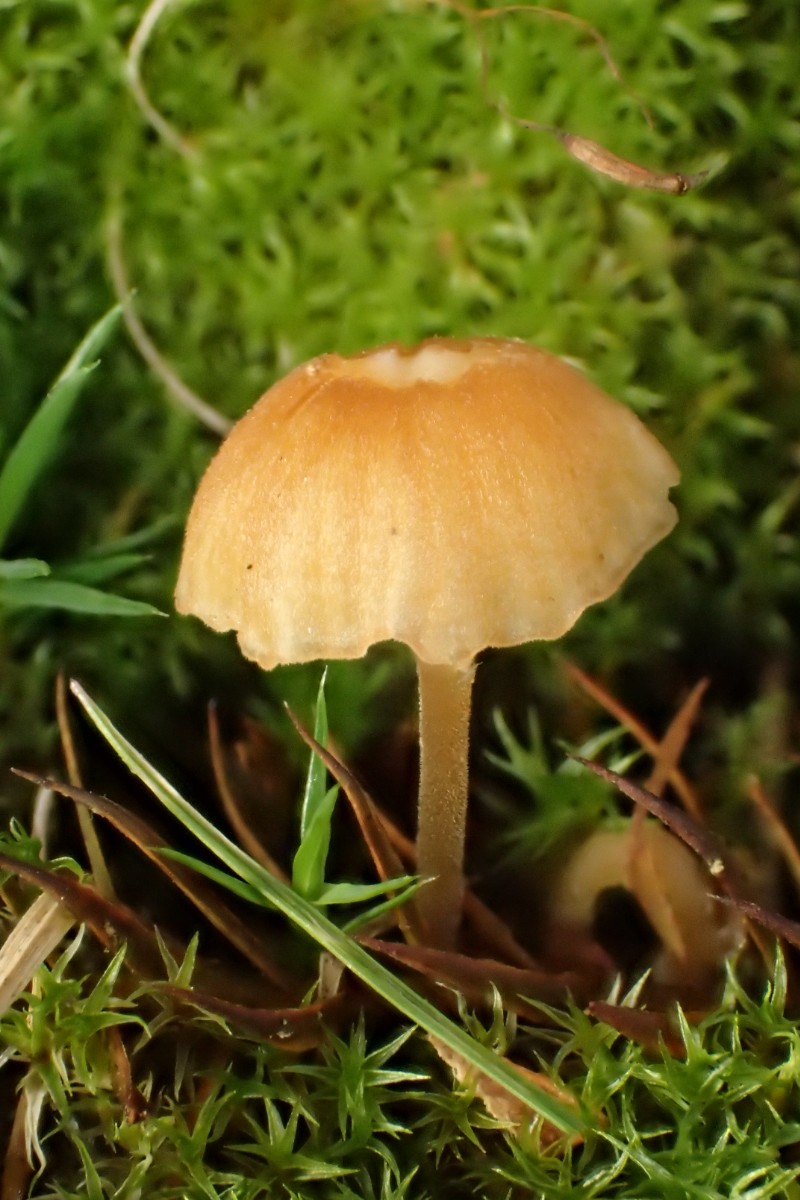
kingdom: Fungi
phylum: Basidiomycota
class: Agaricomycetes
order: Hymenochaetales
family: Rickenellaceae
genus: Rickenella
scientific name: Rickenella fibula
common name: orange mosnavlehat
